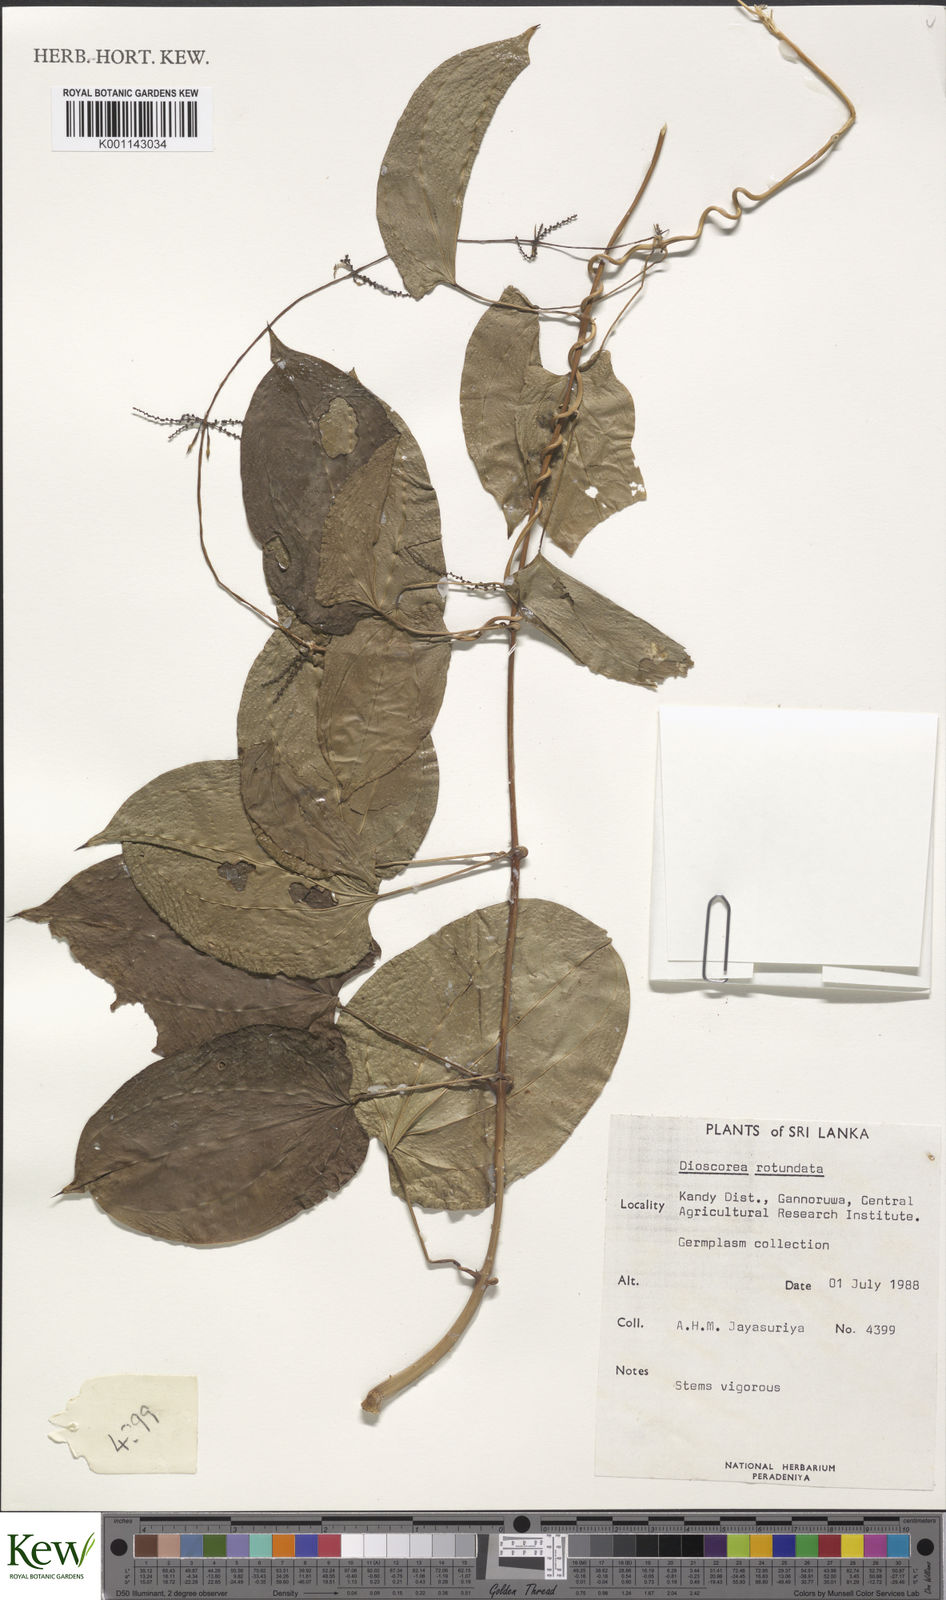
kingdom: Plantae
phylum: Tracheophyta
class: Liliopsida
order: Dioscoreales
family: Dioscoreaceae
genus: Dioscorea
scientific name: Dioscorea cayenensis
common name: Attoto yam
